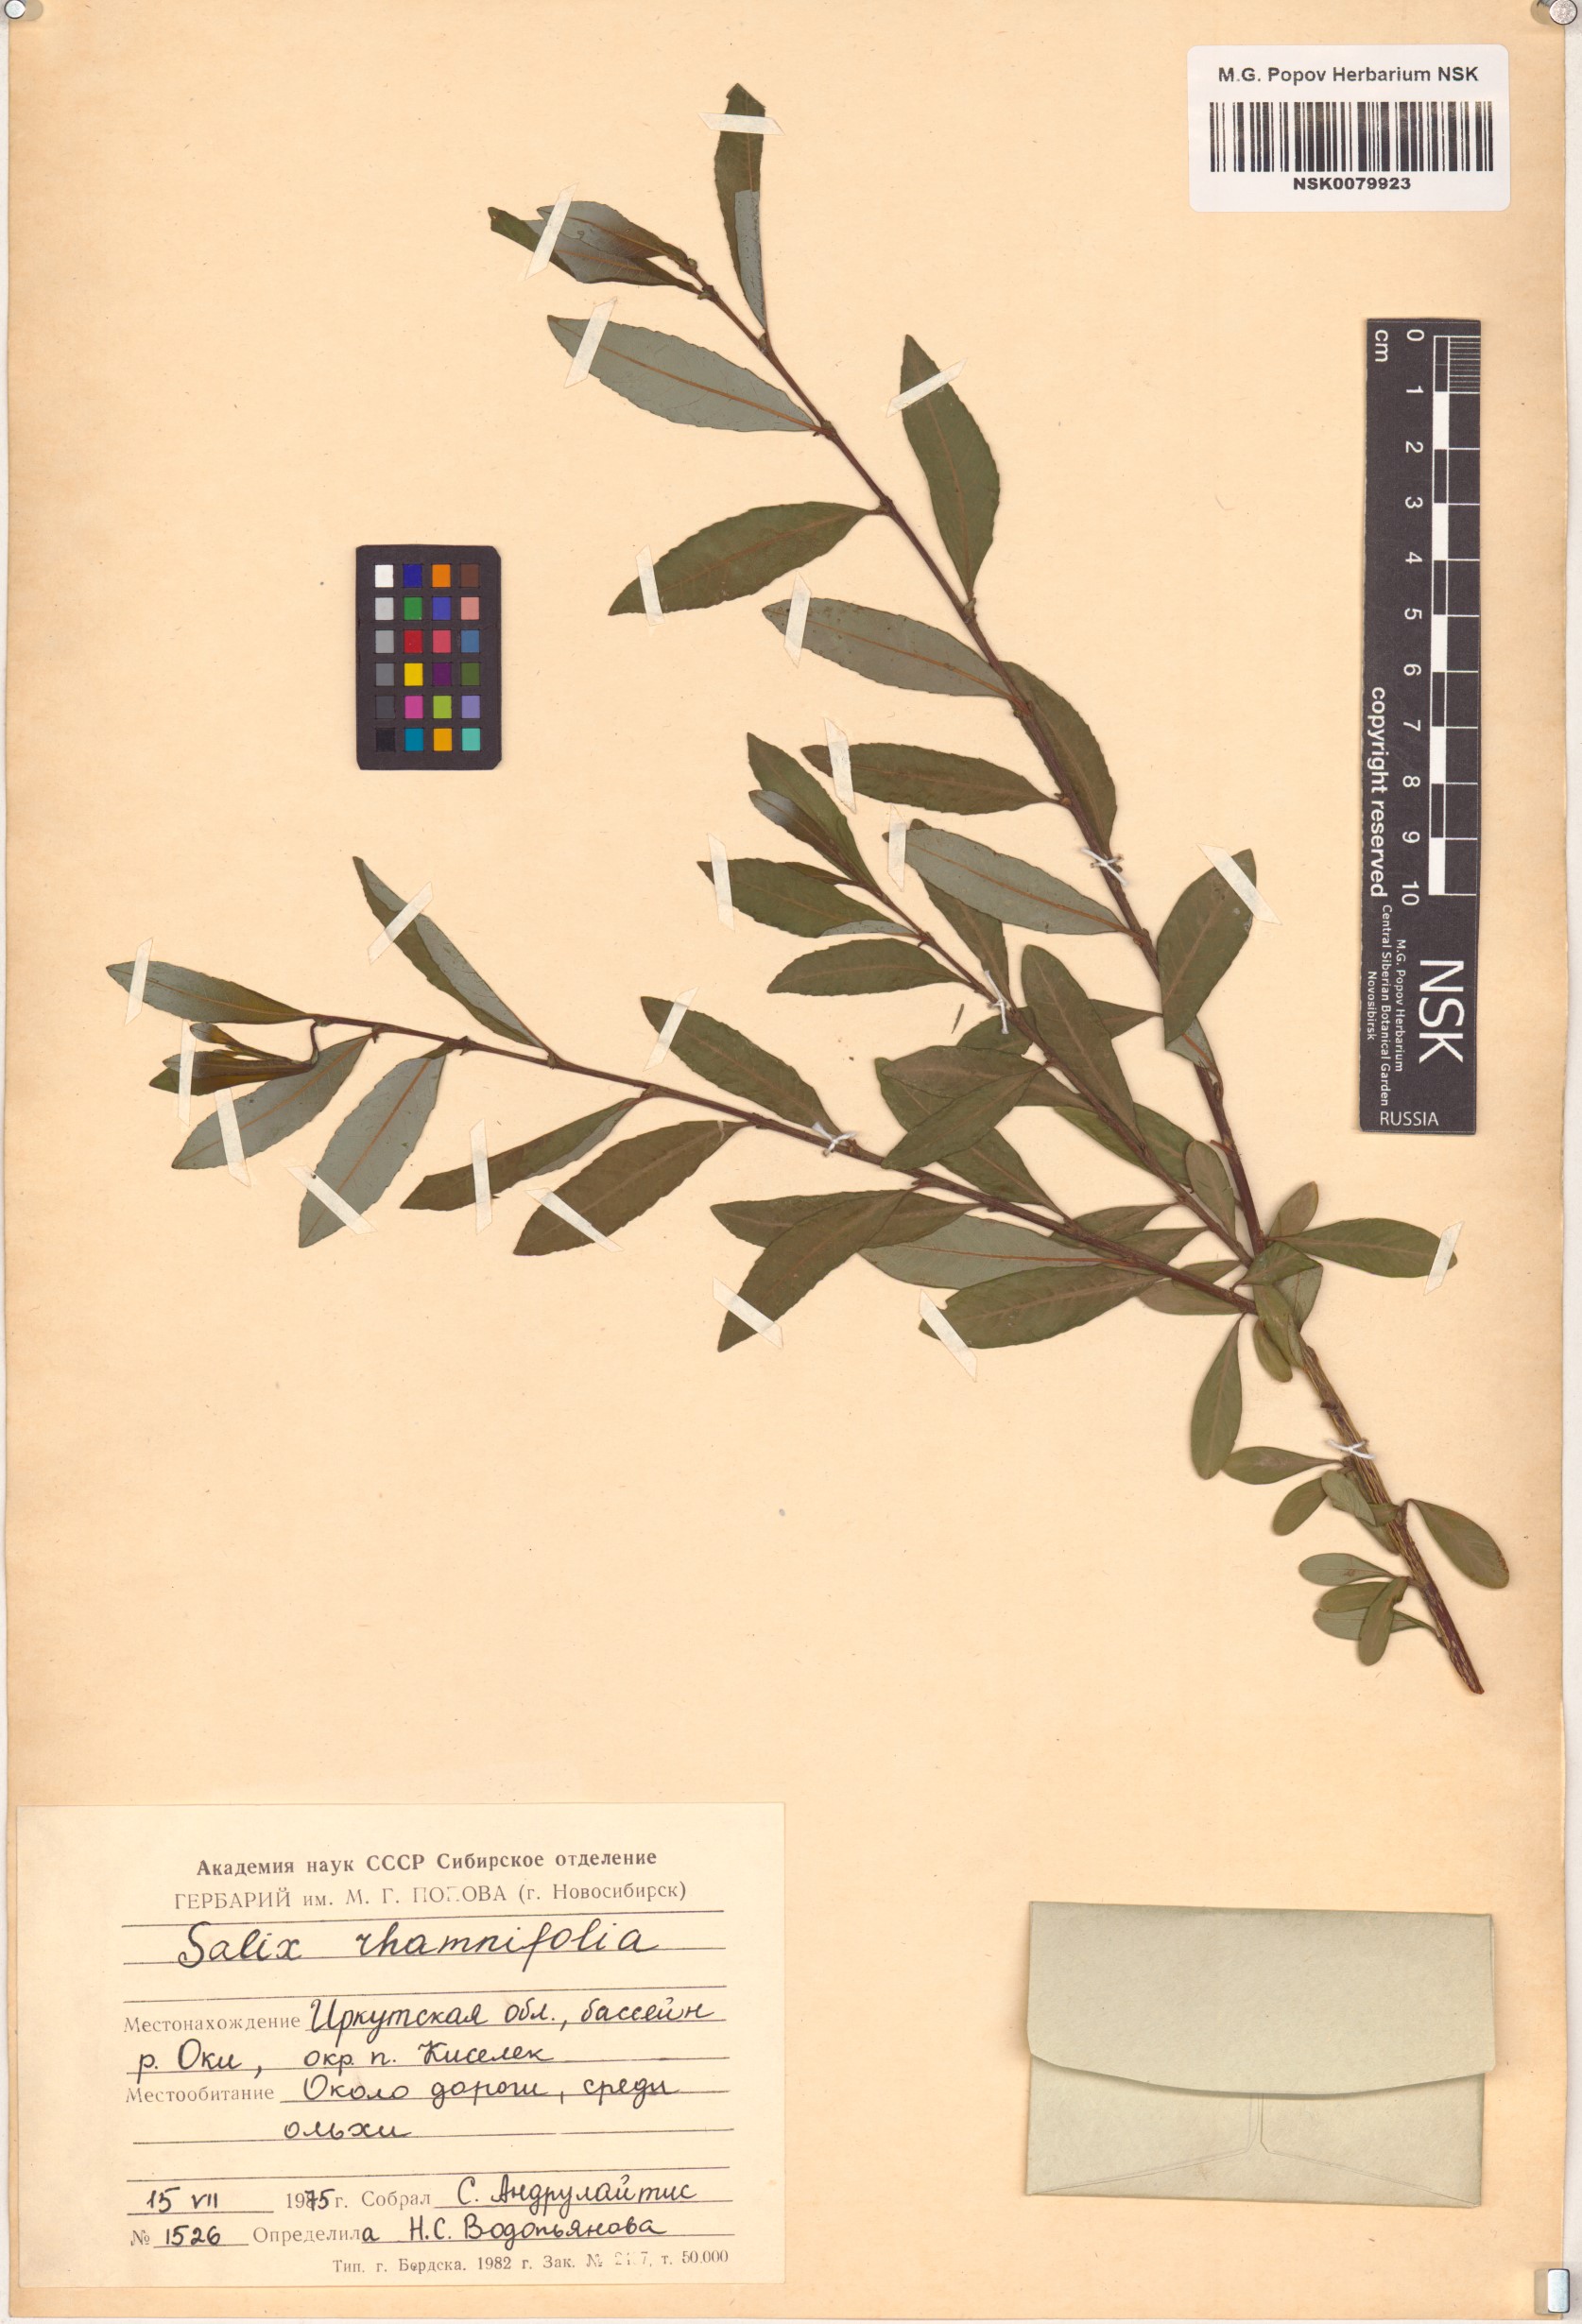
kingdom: Plantae
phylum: Tracheophyta
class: Magnoliopsida
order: Malpighiales
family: Salicaceae
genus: Salix
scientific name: Salix rhamnifolia
